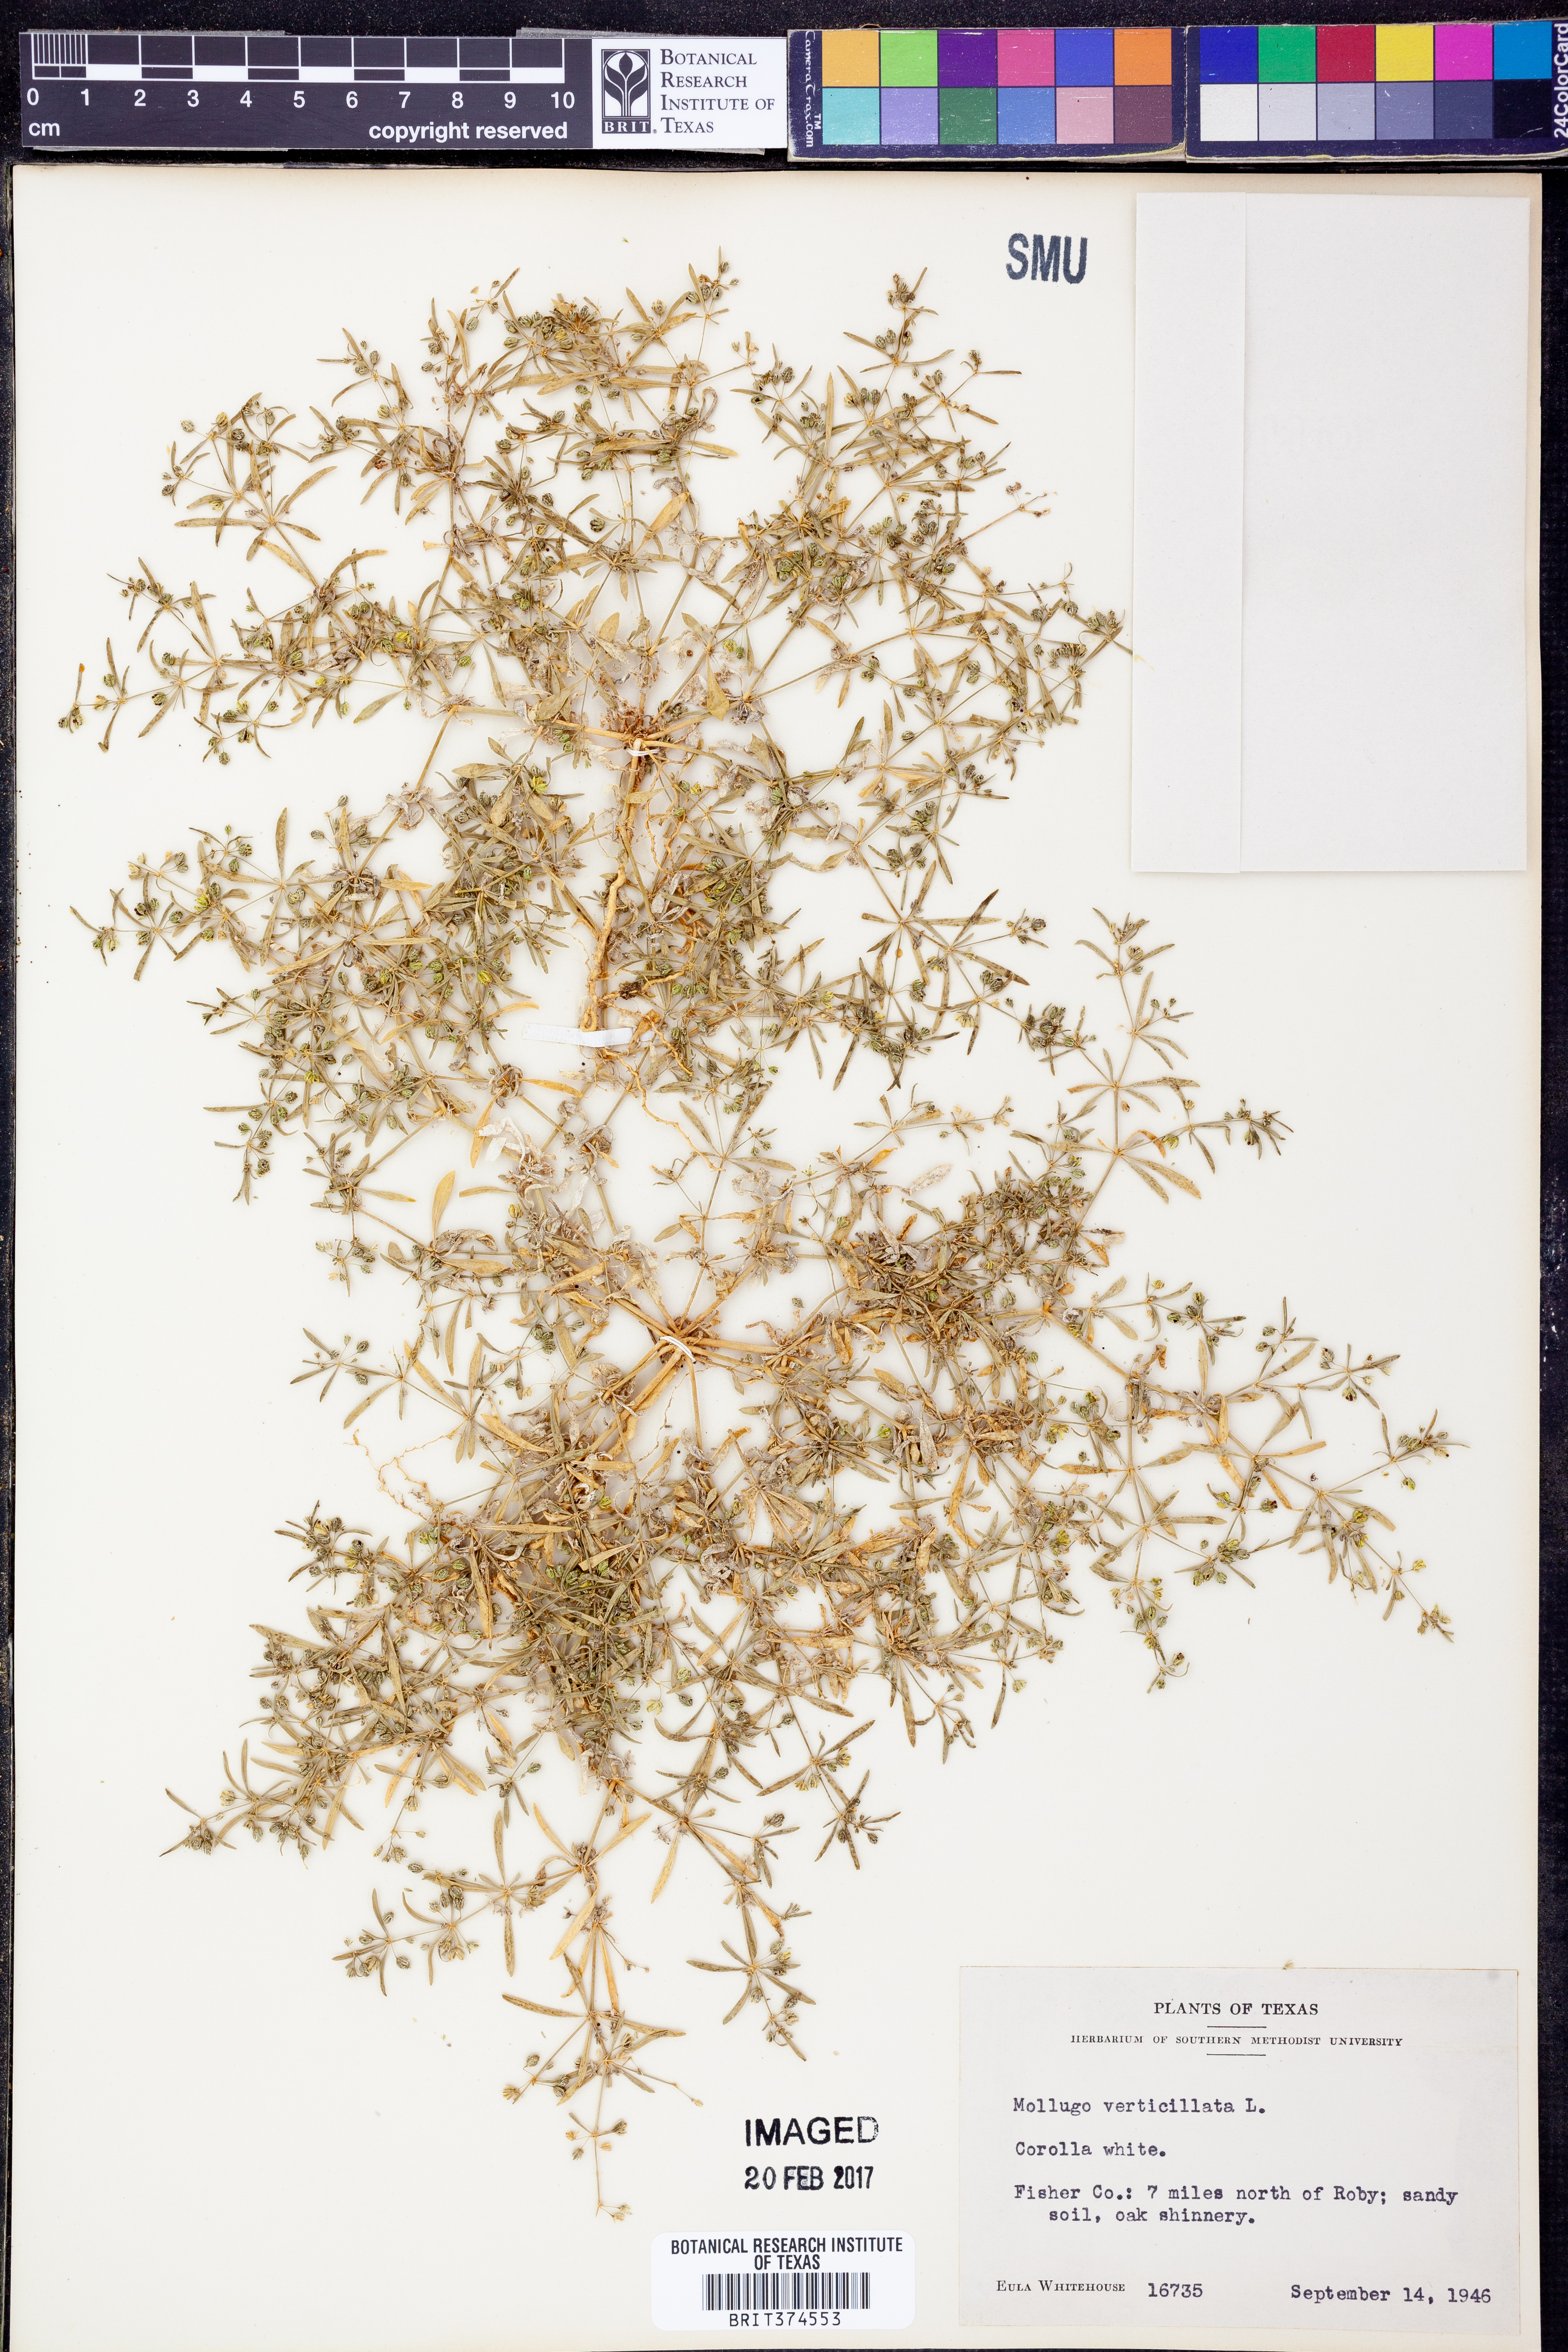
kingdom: Plantae
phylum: Tracheophyta
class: Magnoliopsida
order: Caryophyllales
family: Molluginaceae
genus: Mollugo
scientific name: Mollugo verticillata
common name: Green carpetweed
